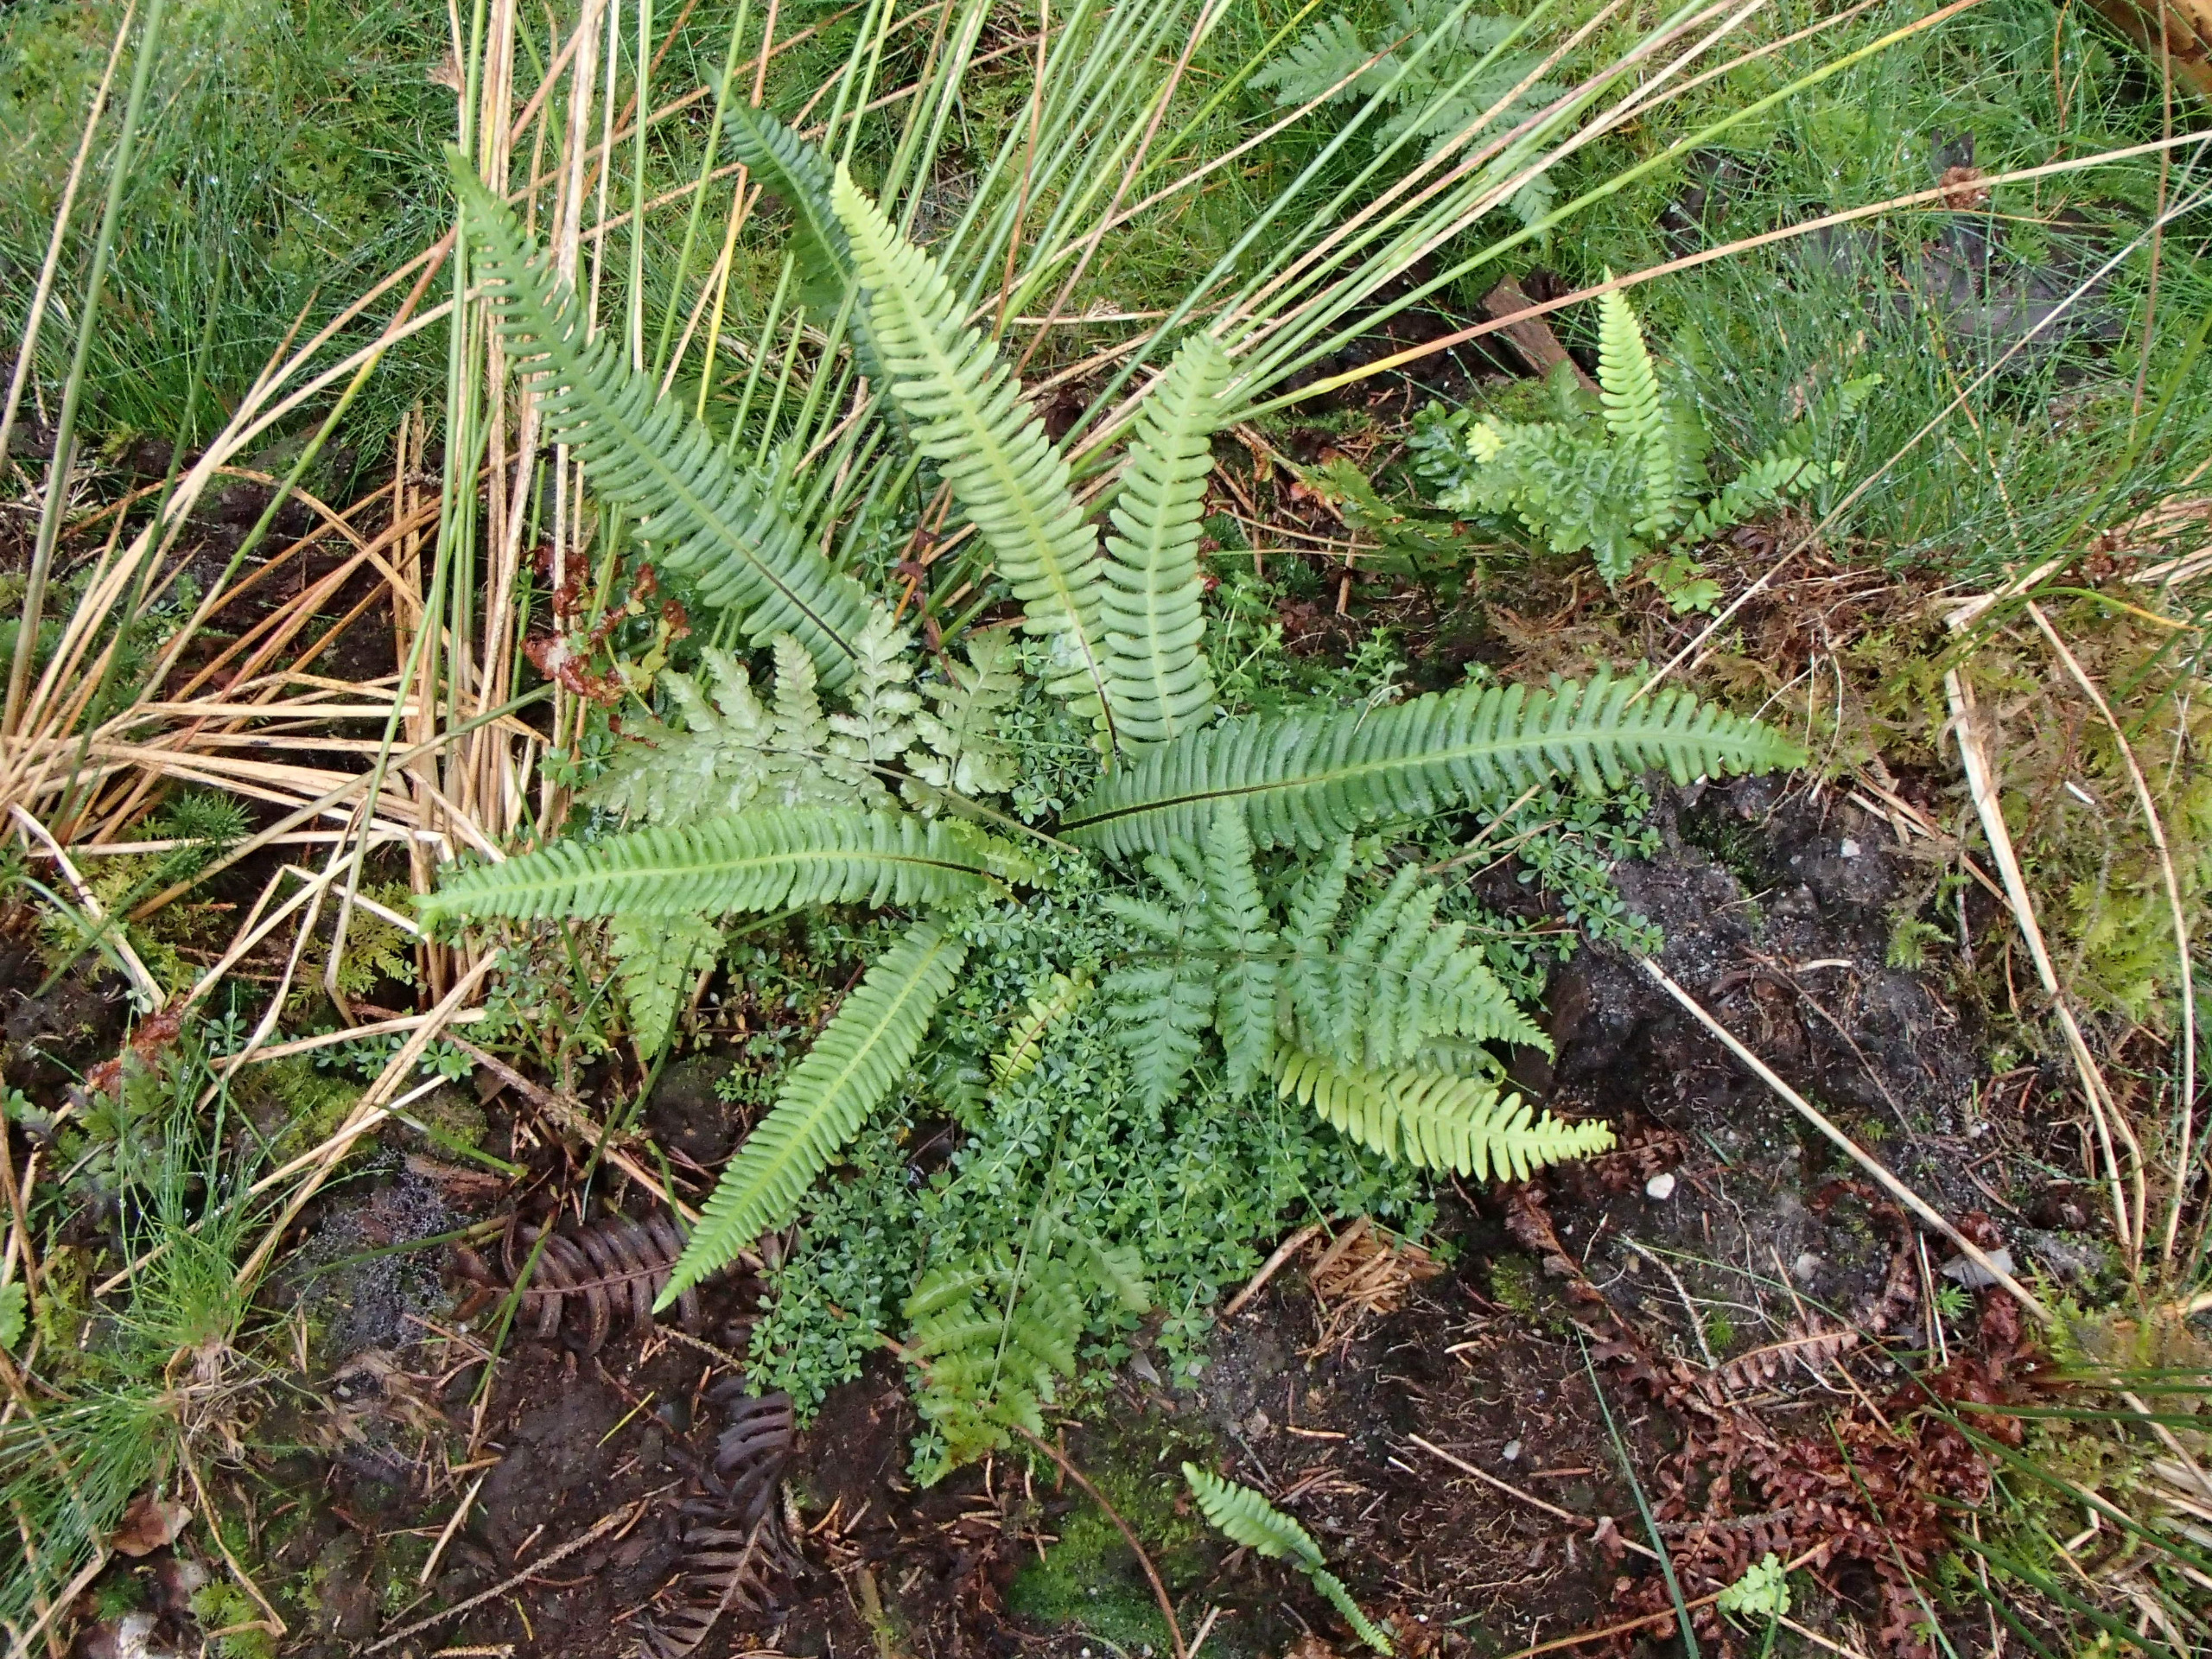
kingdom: Plantae
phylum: Tracheophyta
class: Polypodiopsida
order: Polypodiales
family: Blechnaceae
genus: Struthiopteris
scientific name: Struthiopteris spicant
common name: Kambregne
